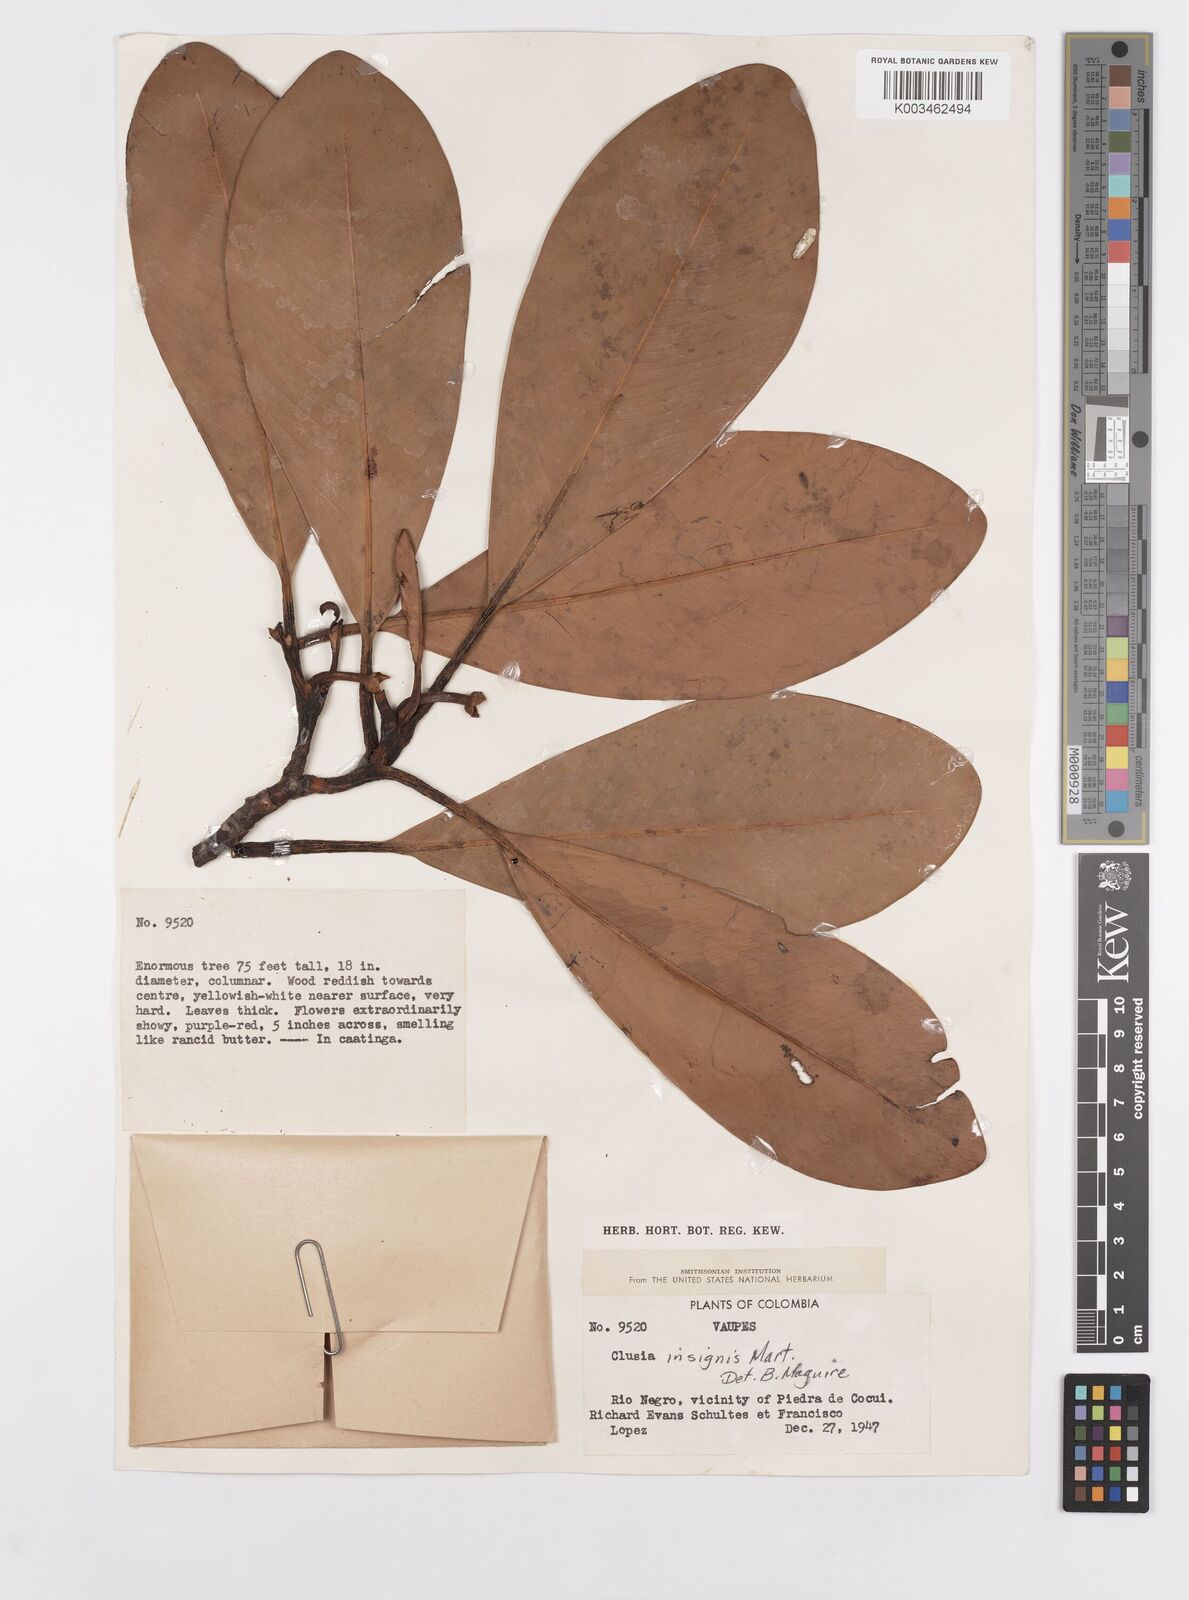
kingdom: Plantae
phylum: Tracheophyta
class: Magnoliopsida
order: Malpighiales
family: Clusiaceae
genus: Clusia
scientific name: Clusia insignis
